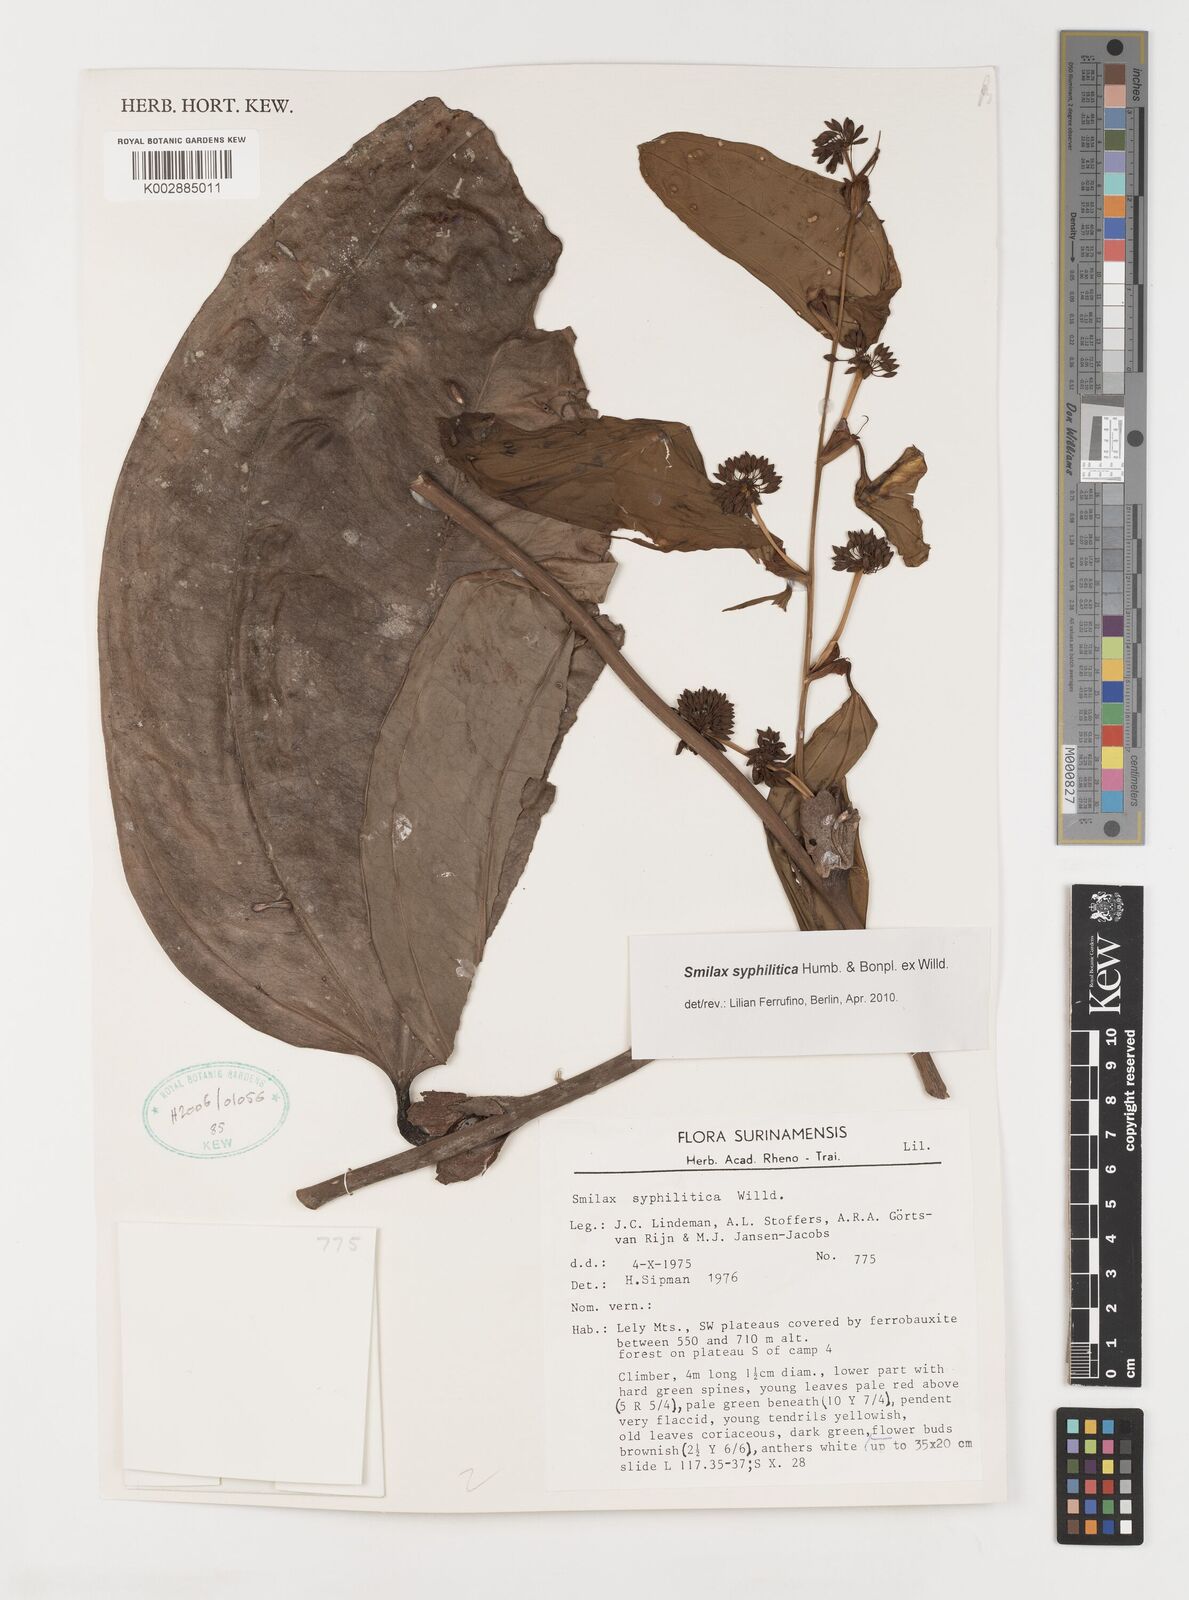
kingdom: Plantae
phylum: Tracheophyta
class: Liliopsida
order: Liliales
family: Smilacaceae
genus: Smilax
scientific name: Smilax schomburgkiana
